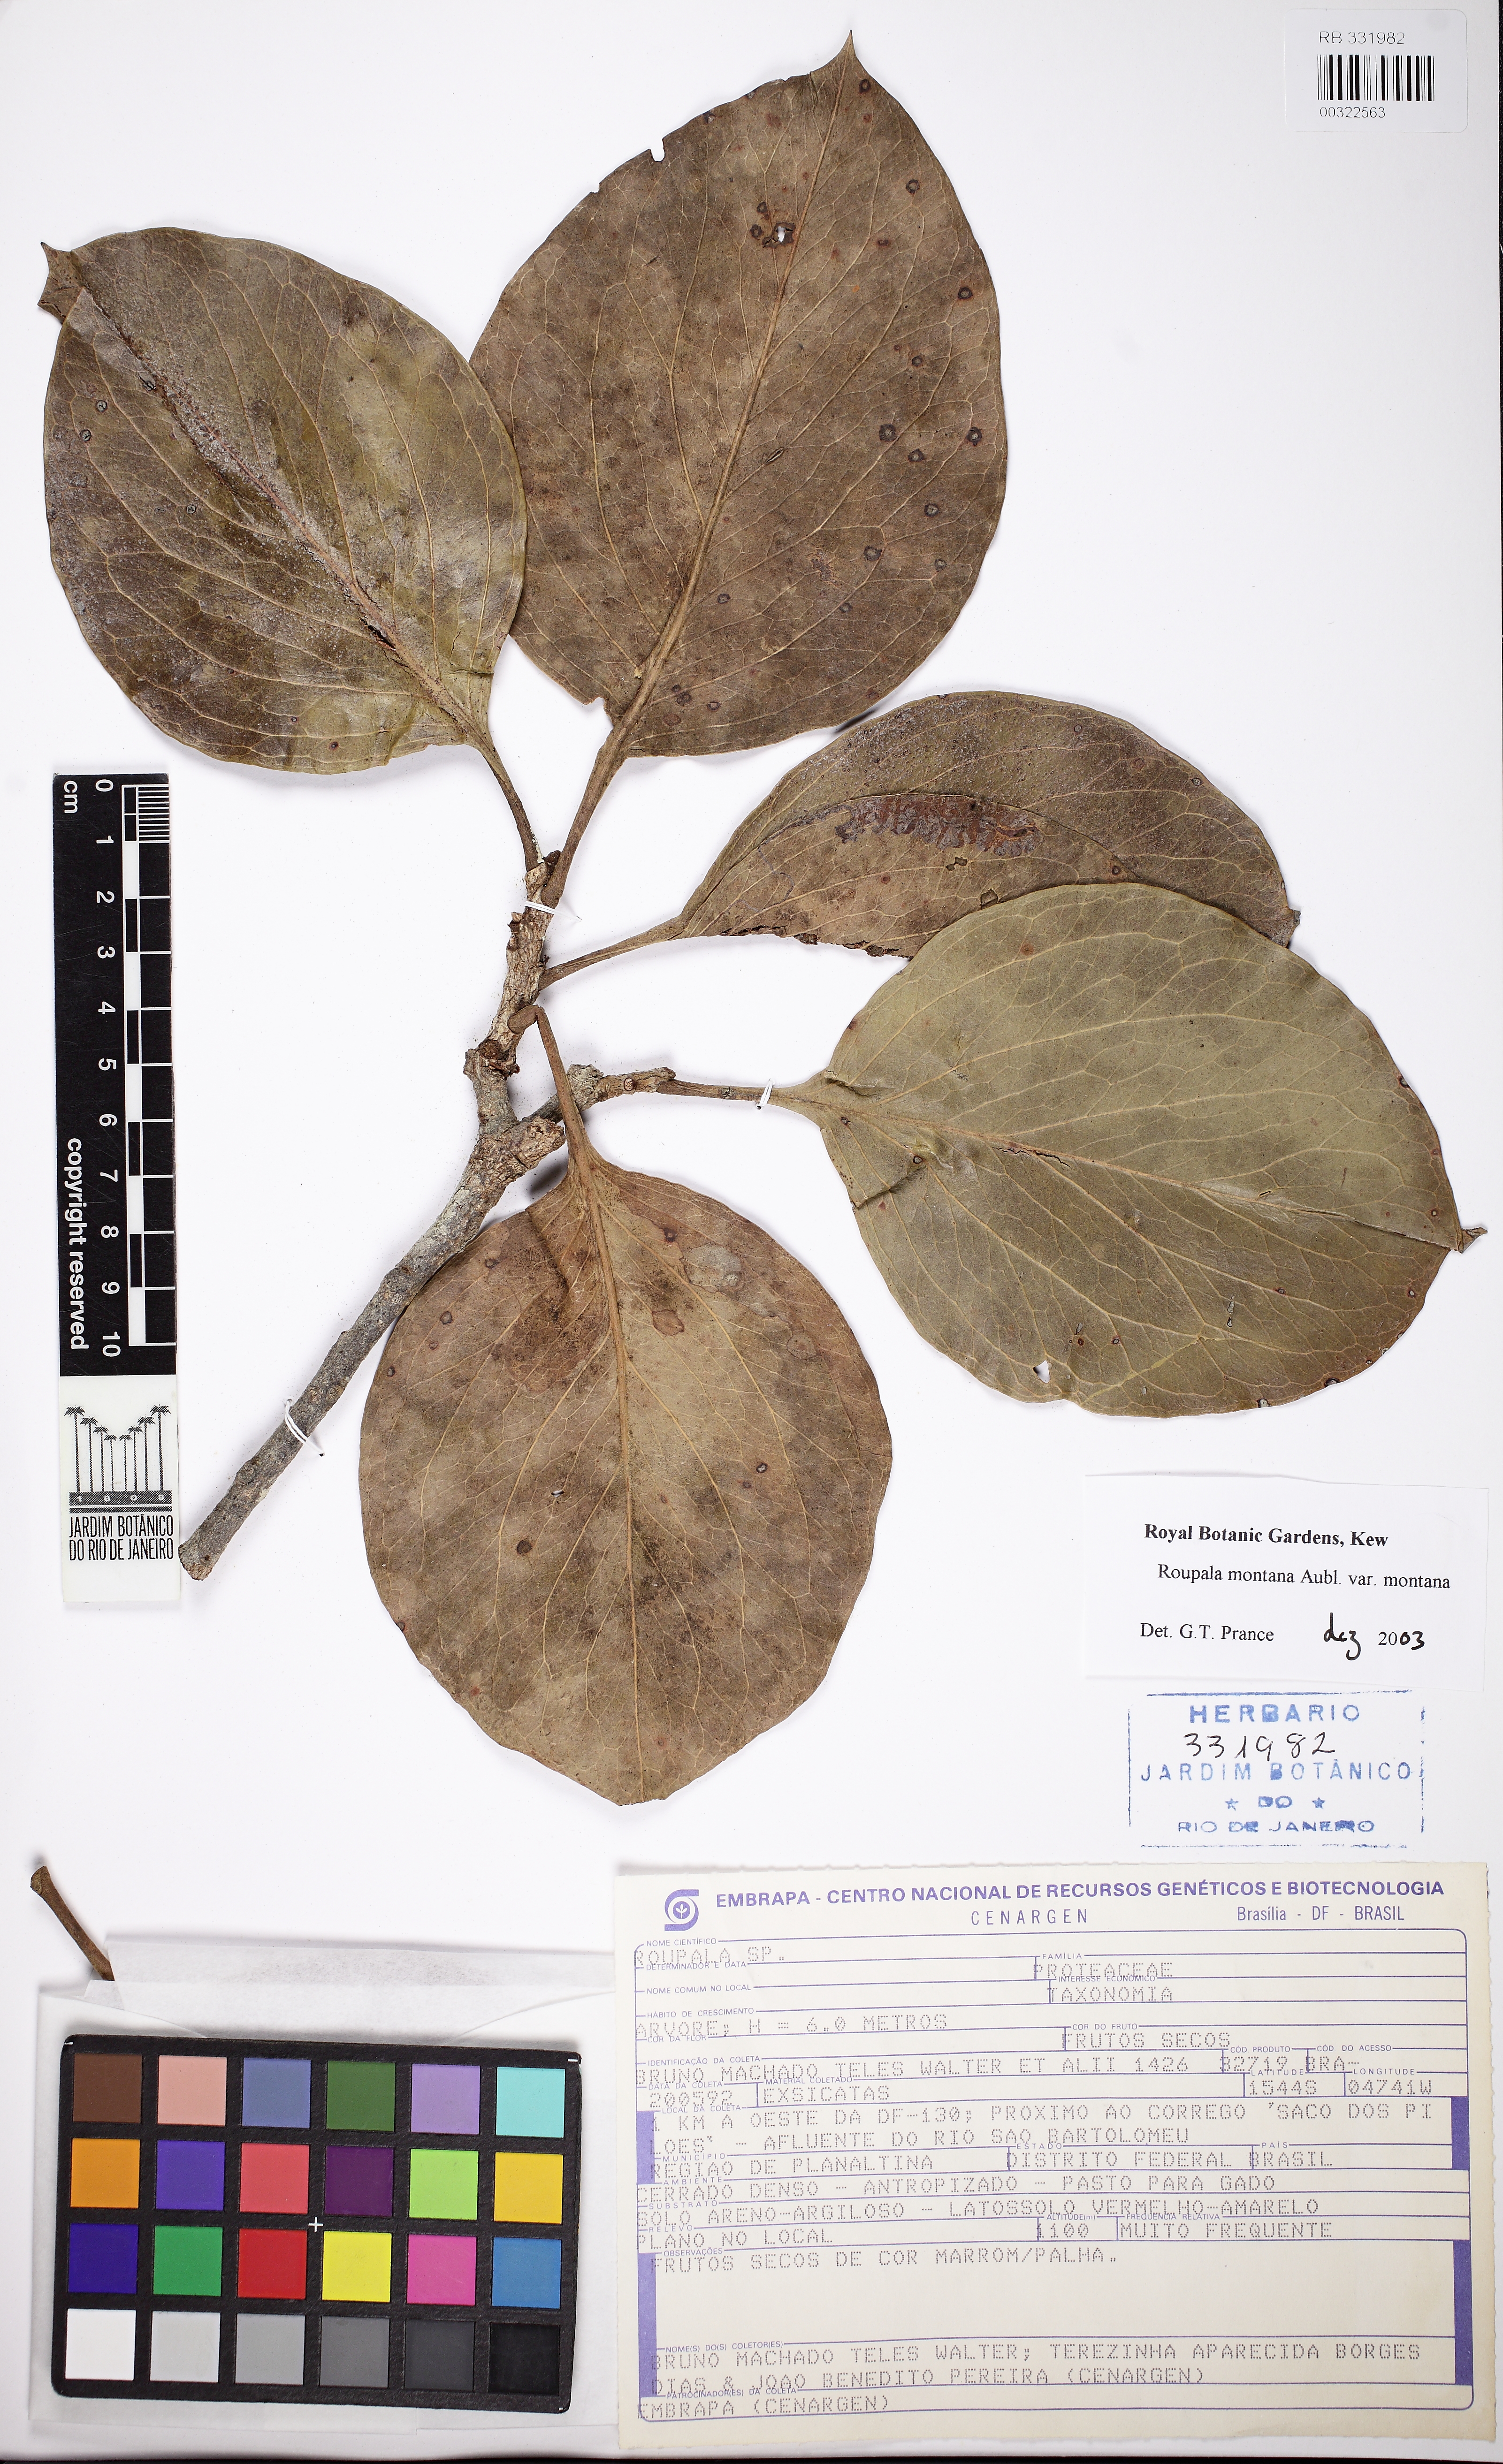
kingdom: Plantae
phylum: Tracheophyta
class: Magnoliopsida
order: Proteales
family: Proteaceae
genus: Roupala
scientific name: Roupala montana
